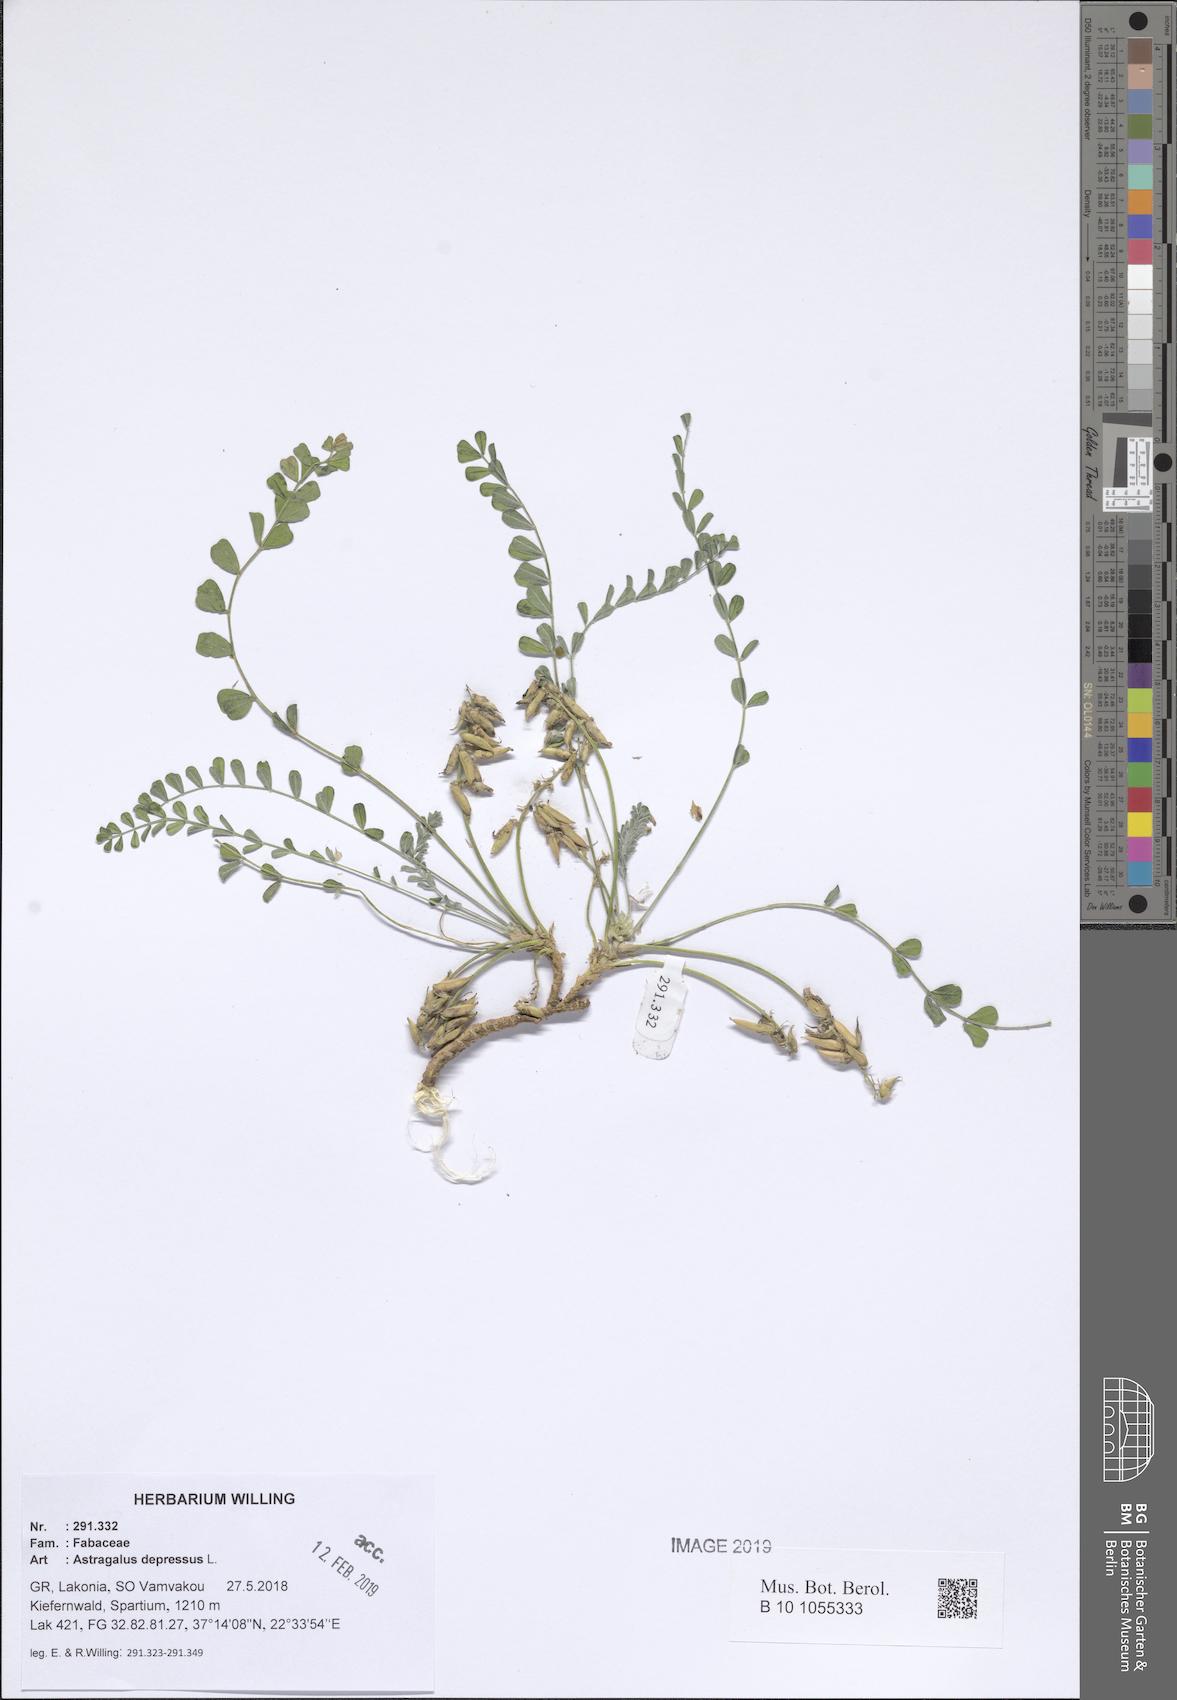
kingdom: Plantae
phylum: Tracheophyta
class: Magnoliopsida
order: Fabales
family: Fabaceae
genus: Astragalus
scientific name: Astragalus depressus
